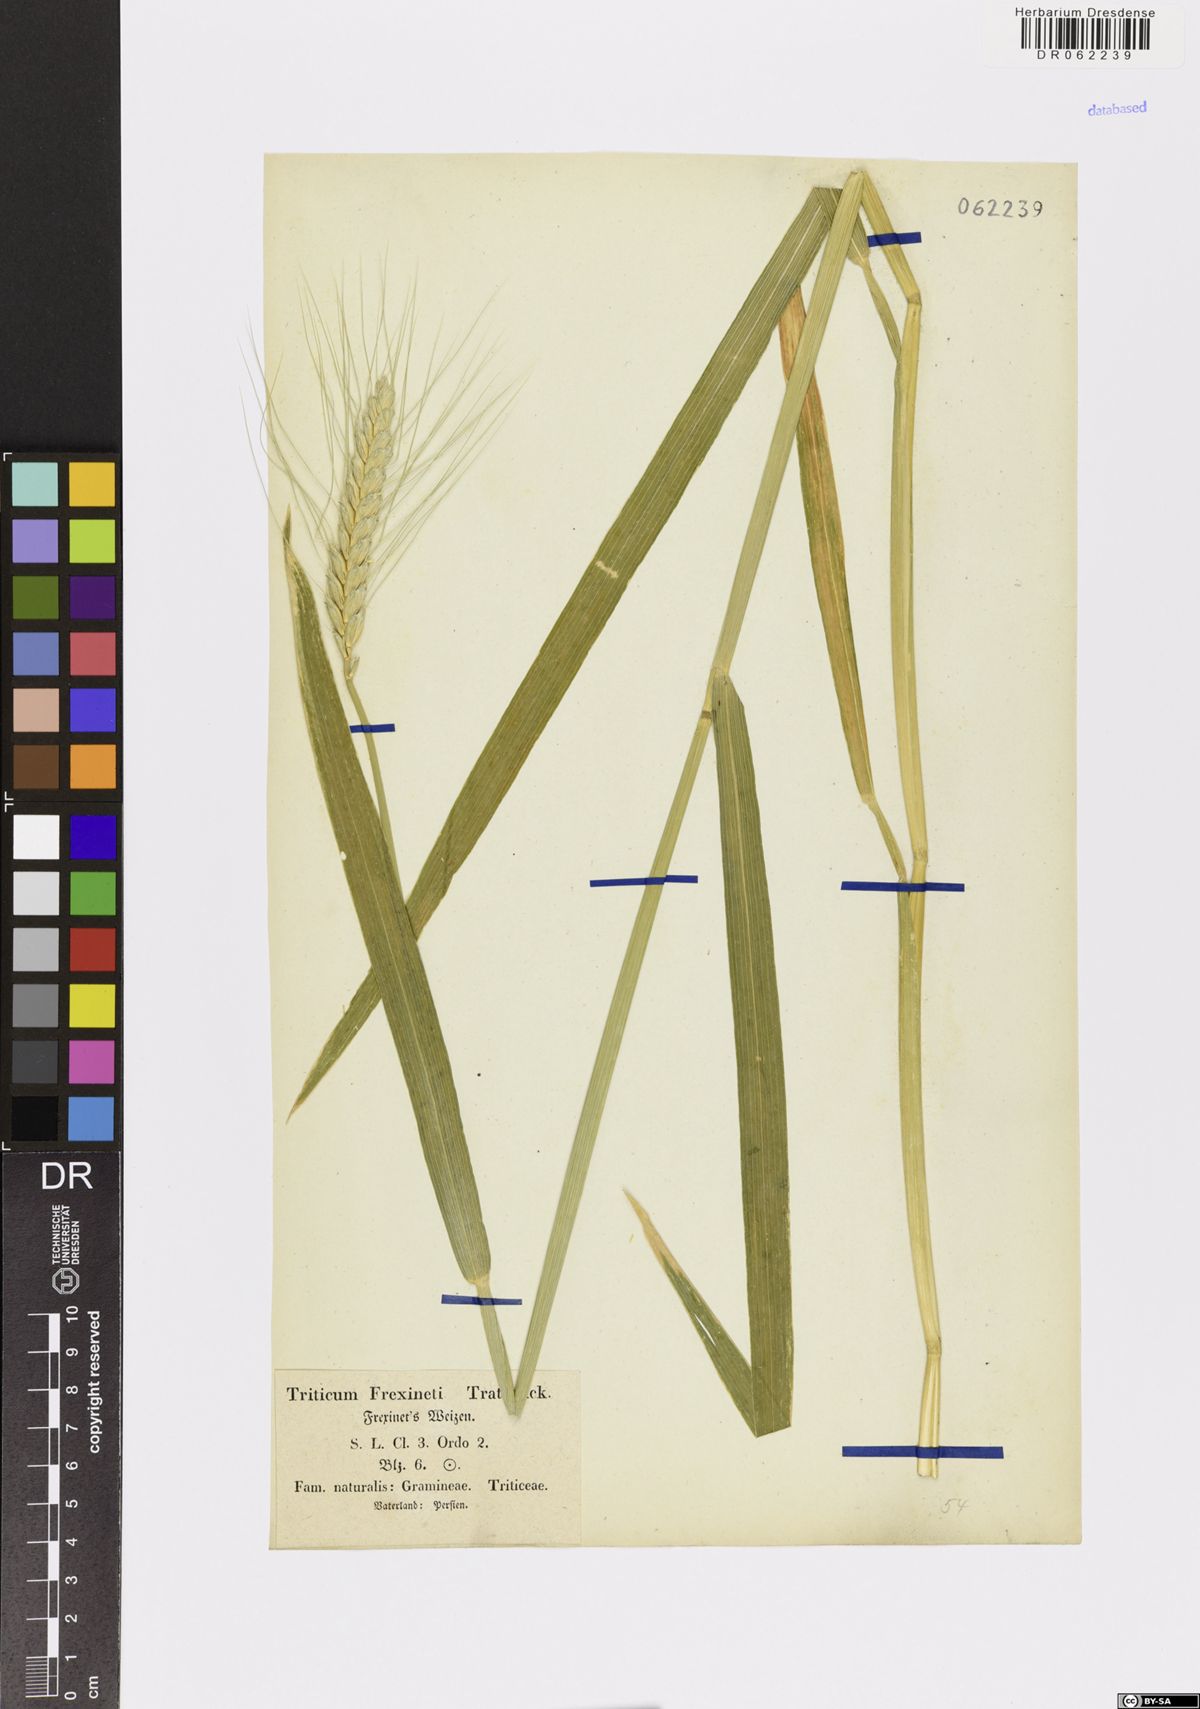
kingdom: Plantae
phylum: Tracheophyta
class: Liliopsida
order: Poales
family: Poaceae
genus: Triticum
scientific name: Triticum
